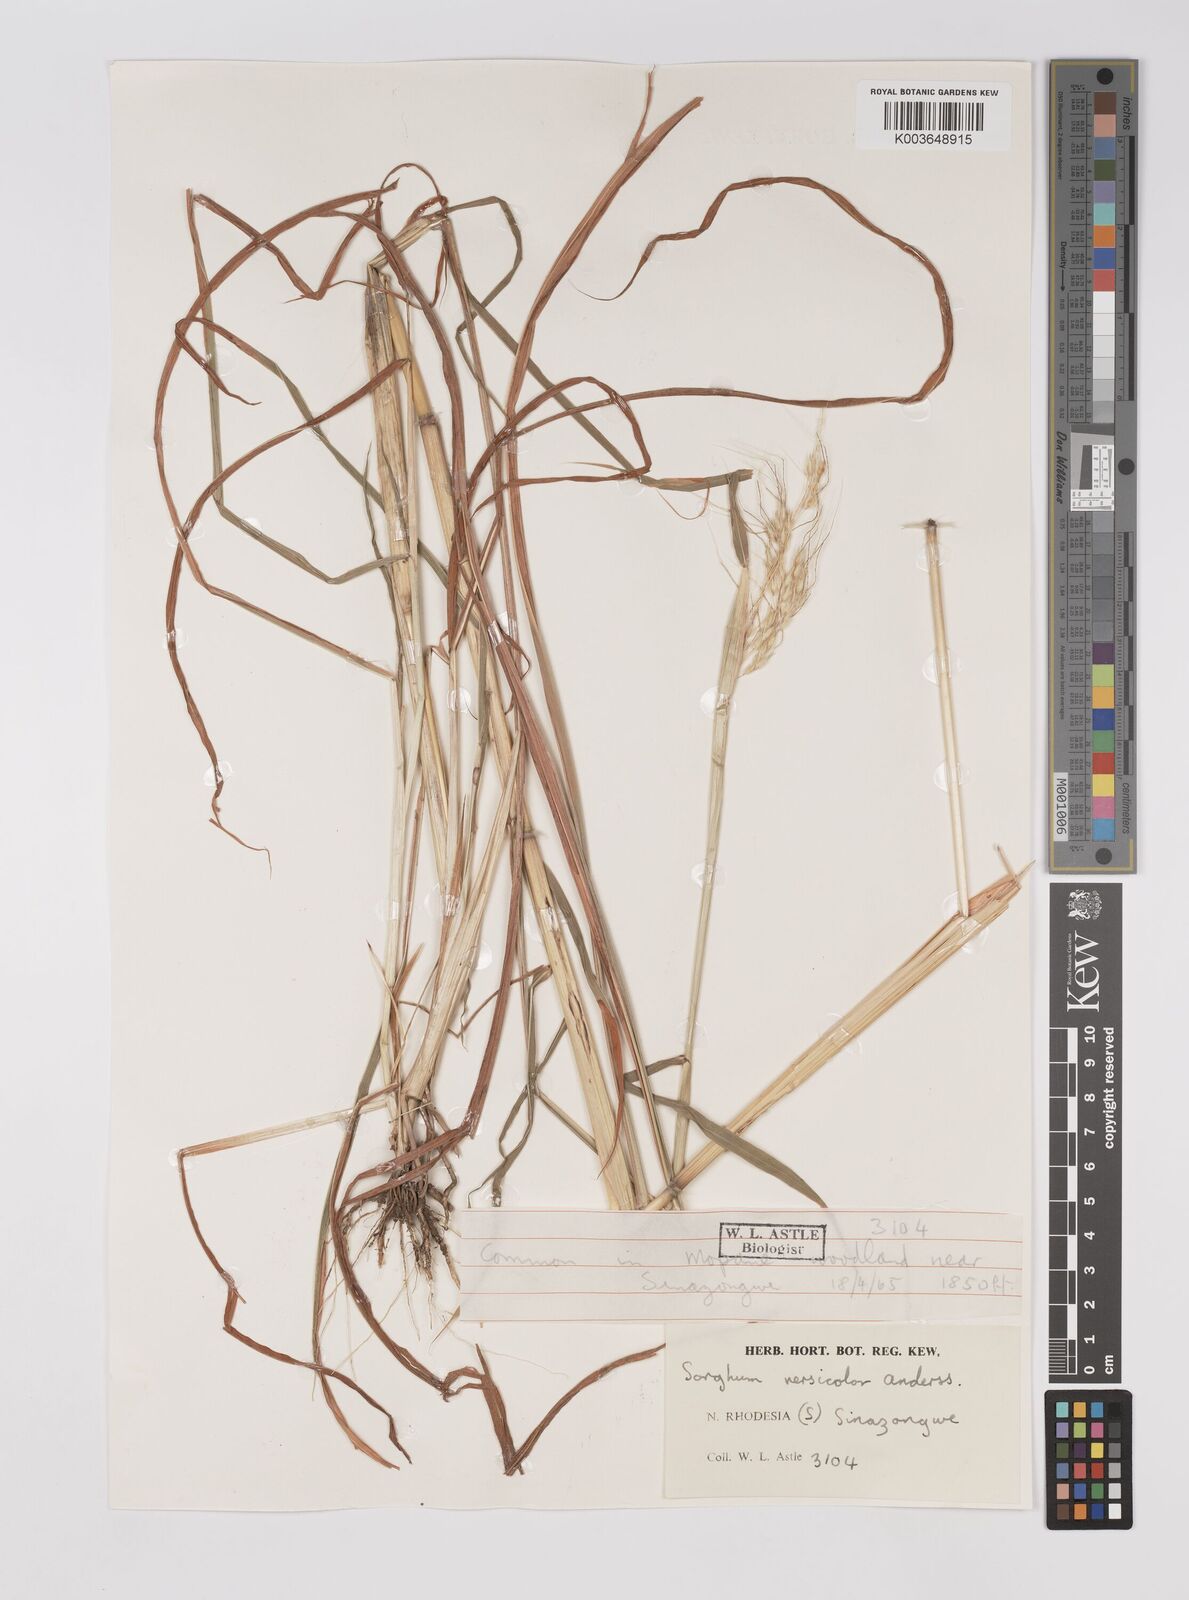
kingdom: Plantae
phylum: Tracheophyta
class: Liliopsida
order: Poales
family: Poaceae
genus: Sarga
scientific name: Sarga versicolor
